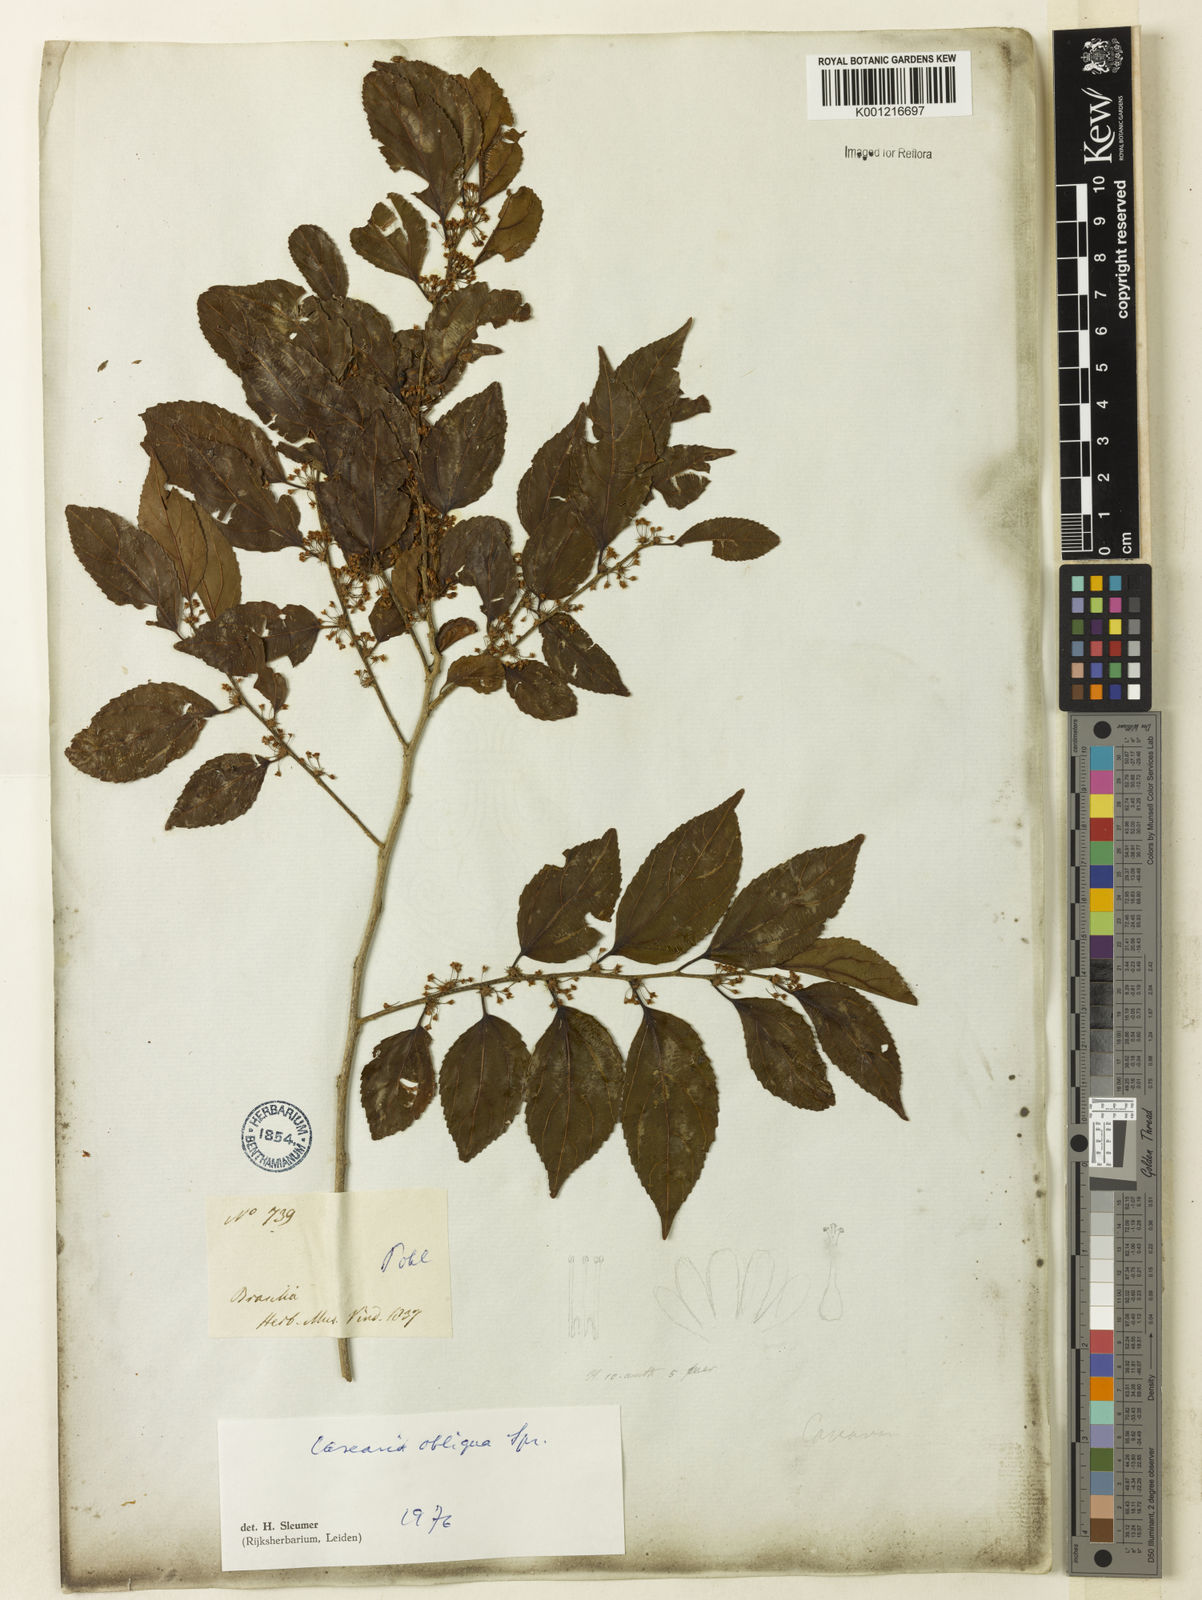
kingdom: Plantae
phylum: Tracheophyta
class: Magnoliopsida
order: Malpighiales
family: Salicaceae
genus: Casearia
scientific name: Casearia obliqua
